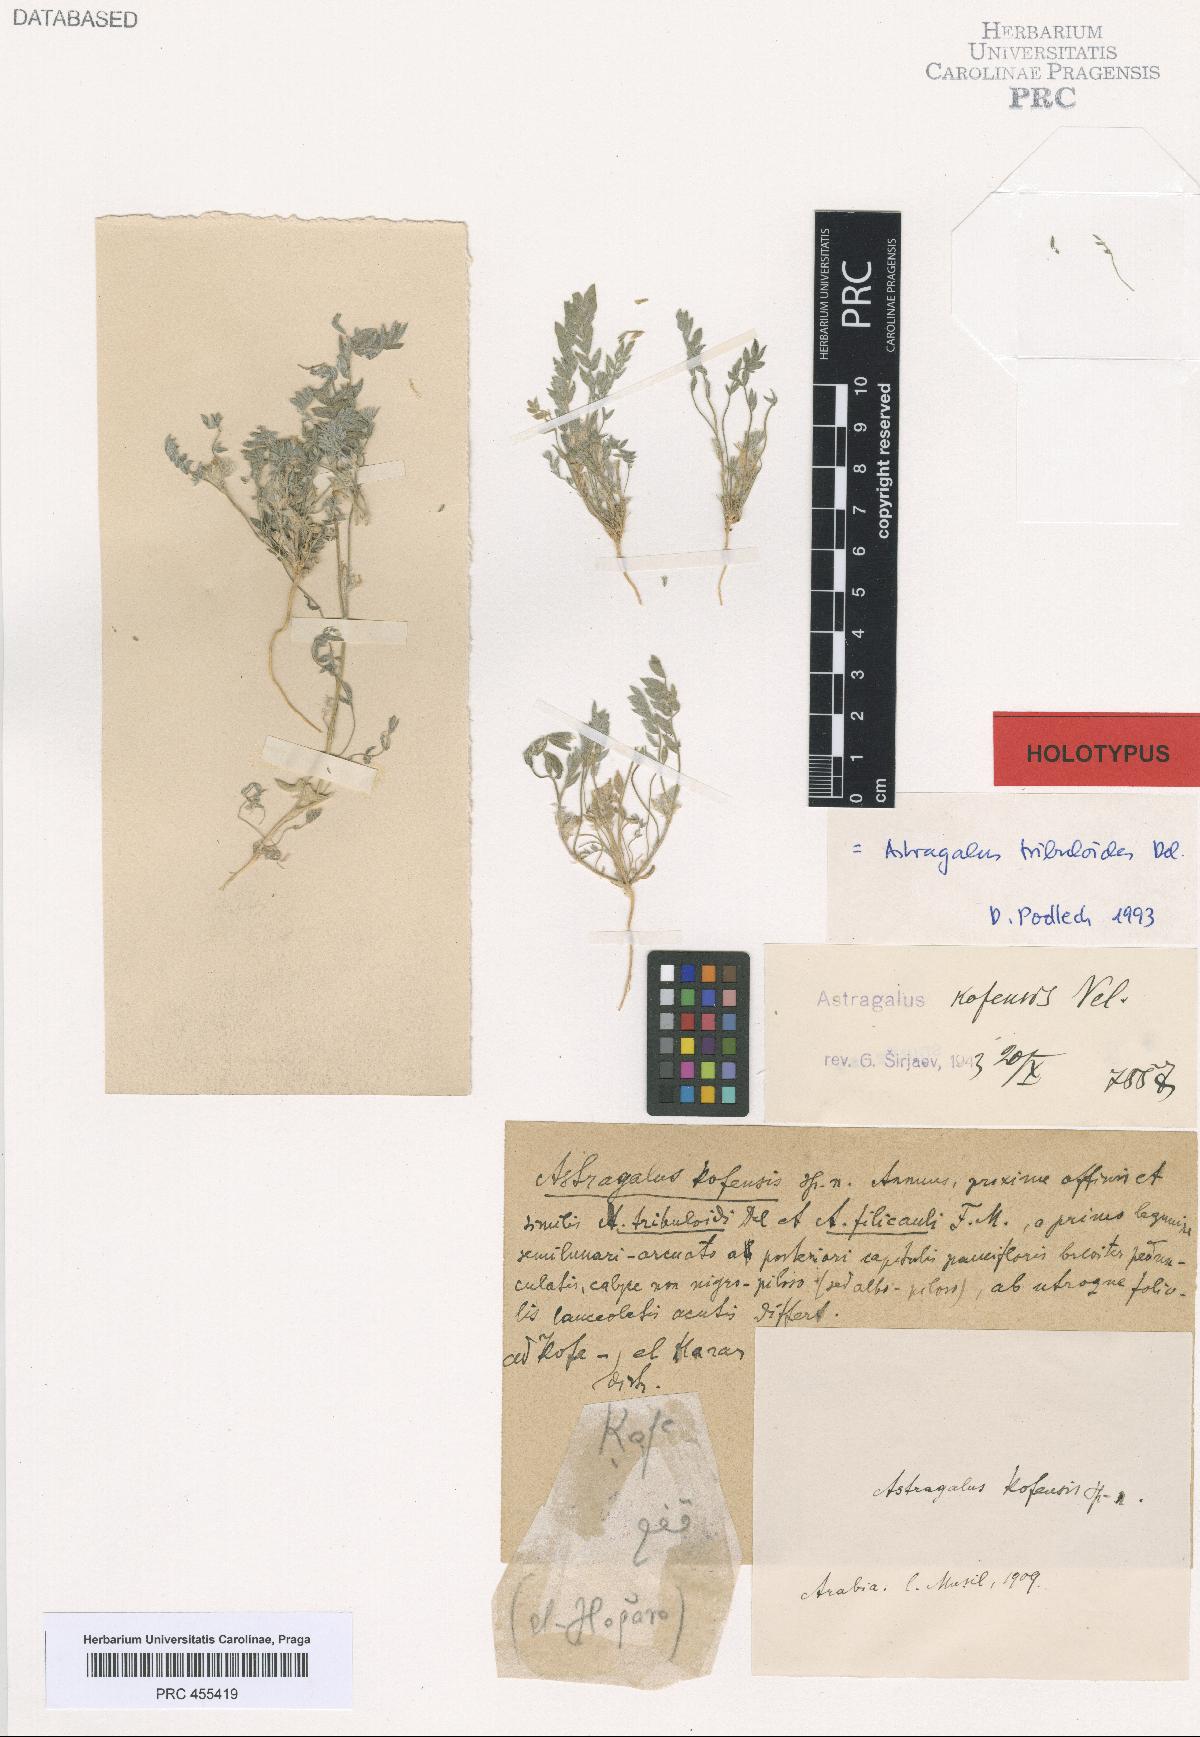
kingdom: Plantae
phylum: Tracheophyta
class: Magnoliopsida
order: Fabales
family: Fabaceae
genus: Astragalus
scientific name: Astragalus tribuloides
